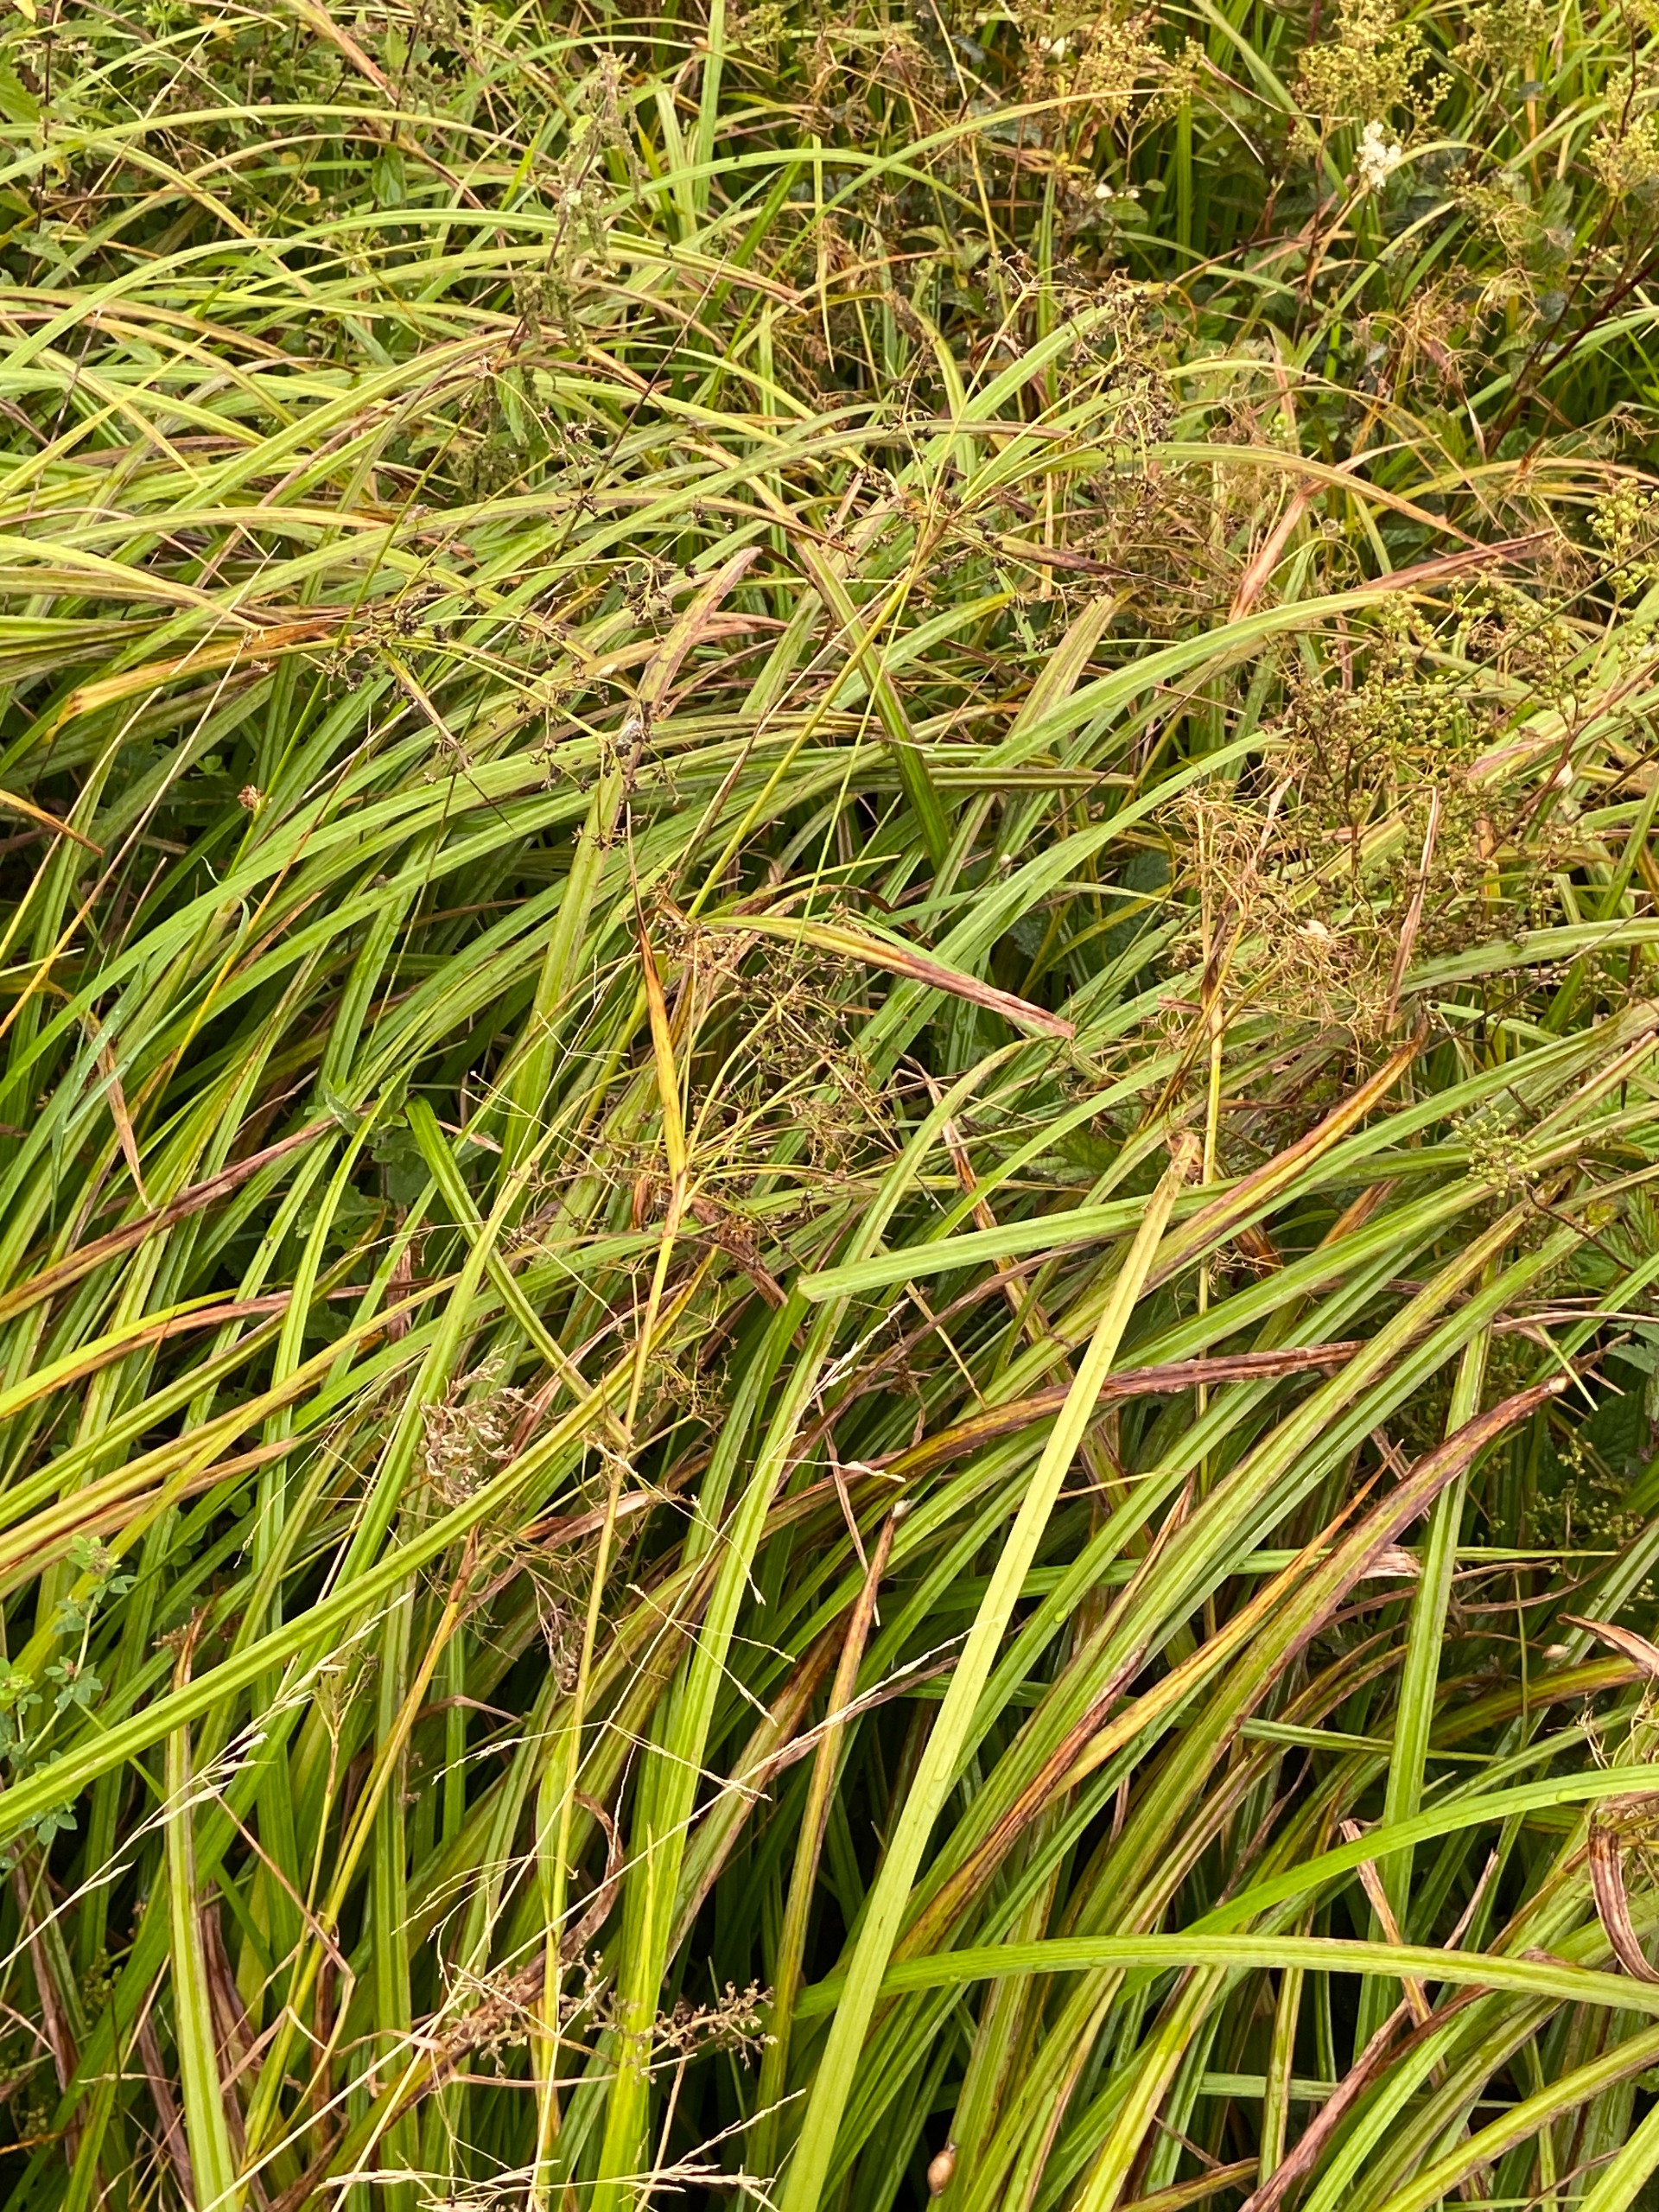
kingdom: Plantae
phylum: Tracheophyta
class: Liliopsida
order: Poales
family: Cyperaceae
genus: Scirpus
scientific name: Scirpus sylvaticus
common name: Skov-kogleaks
